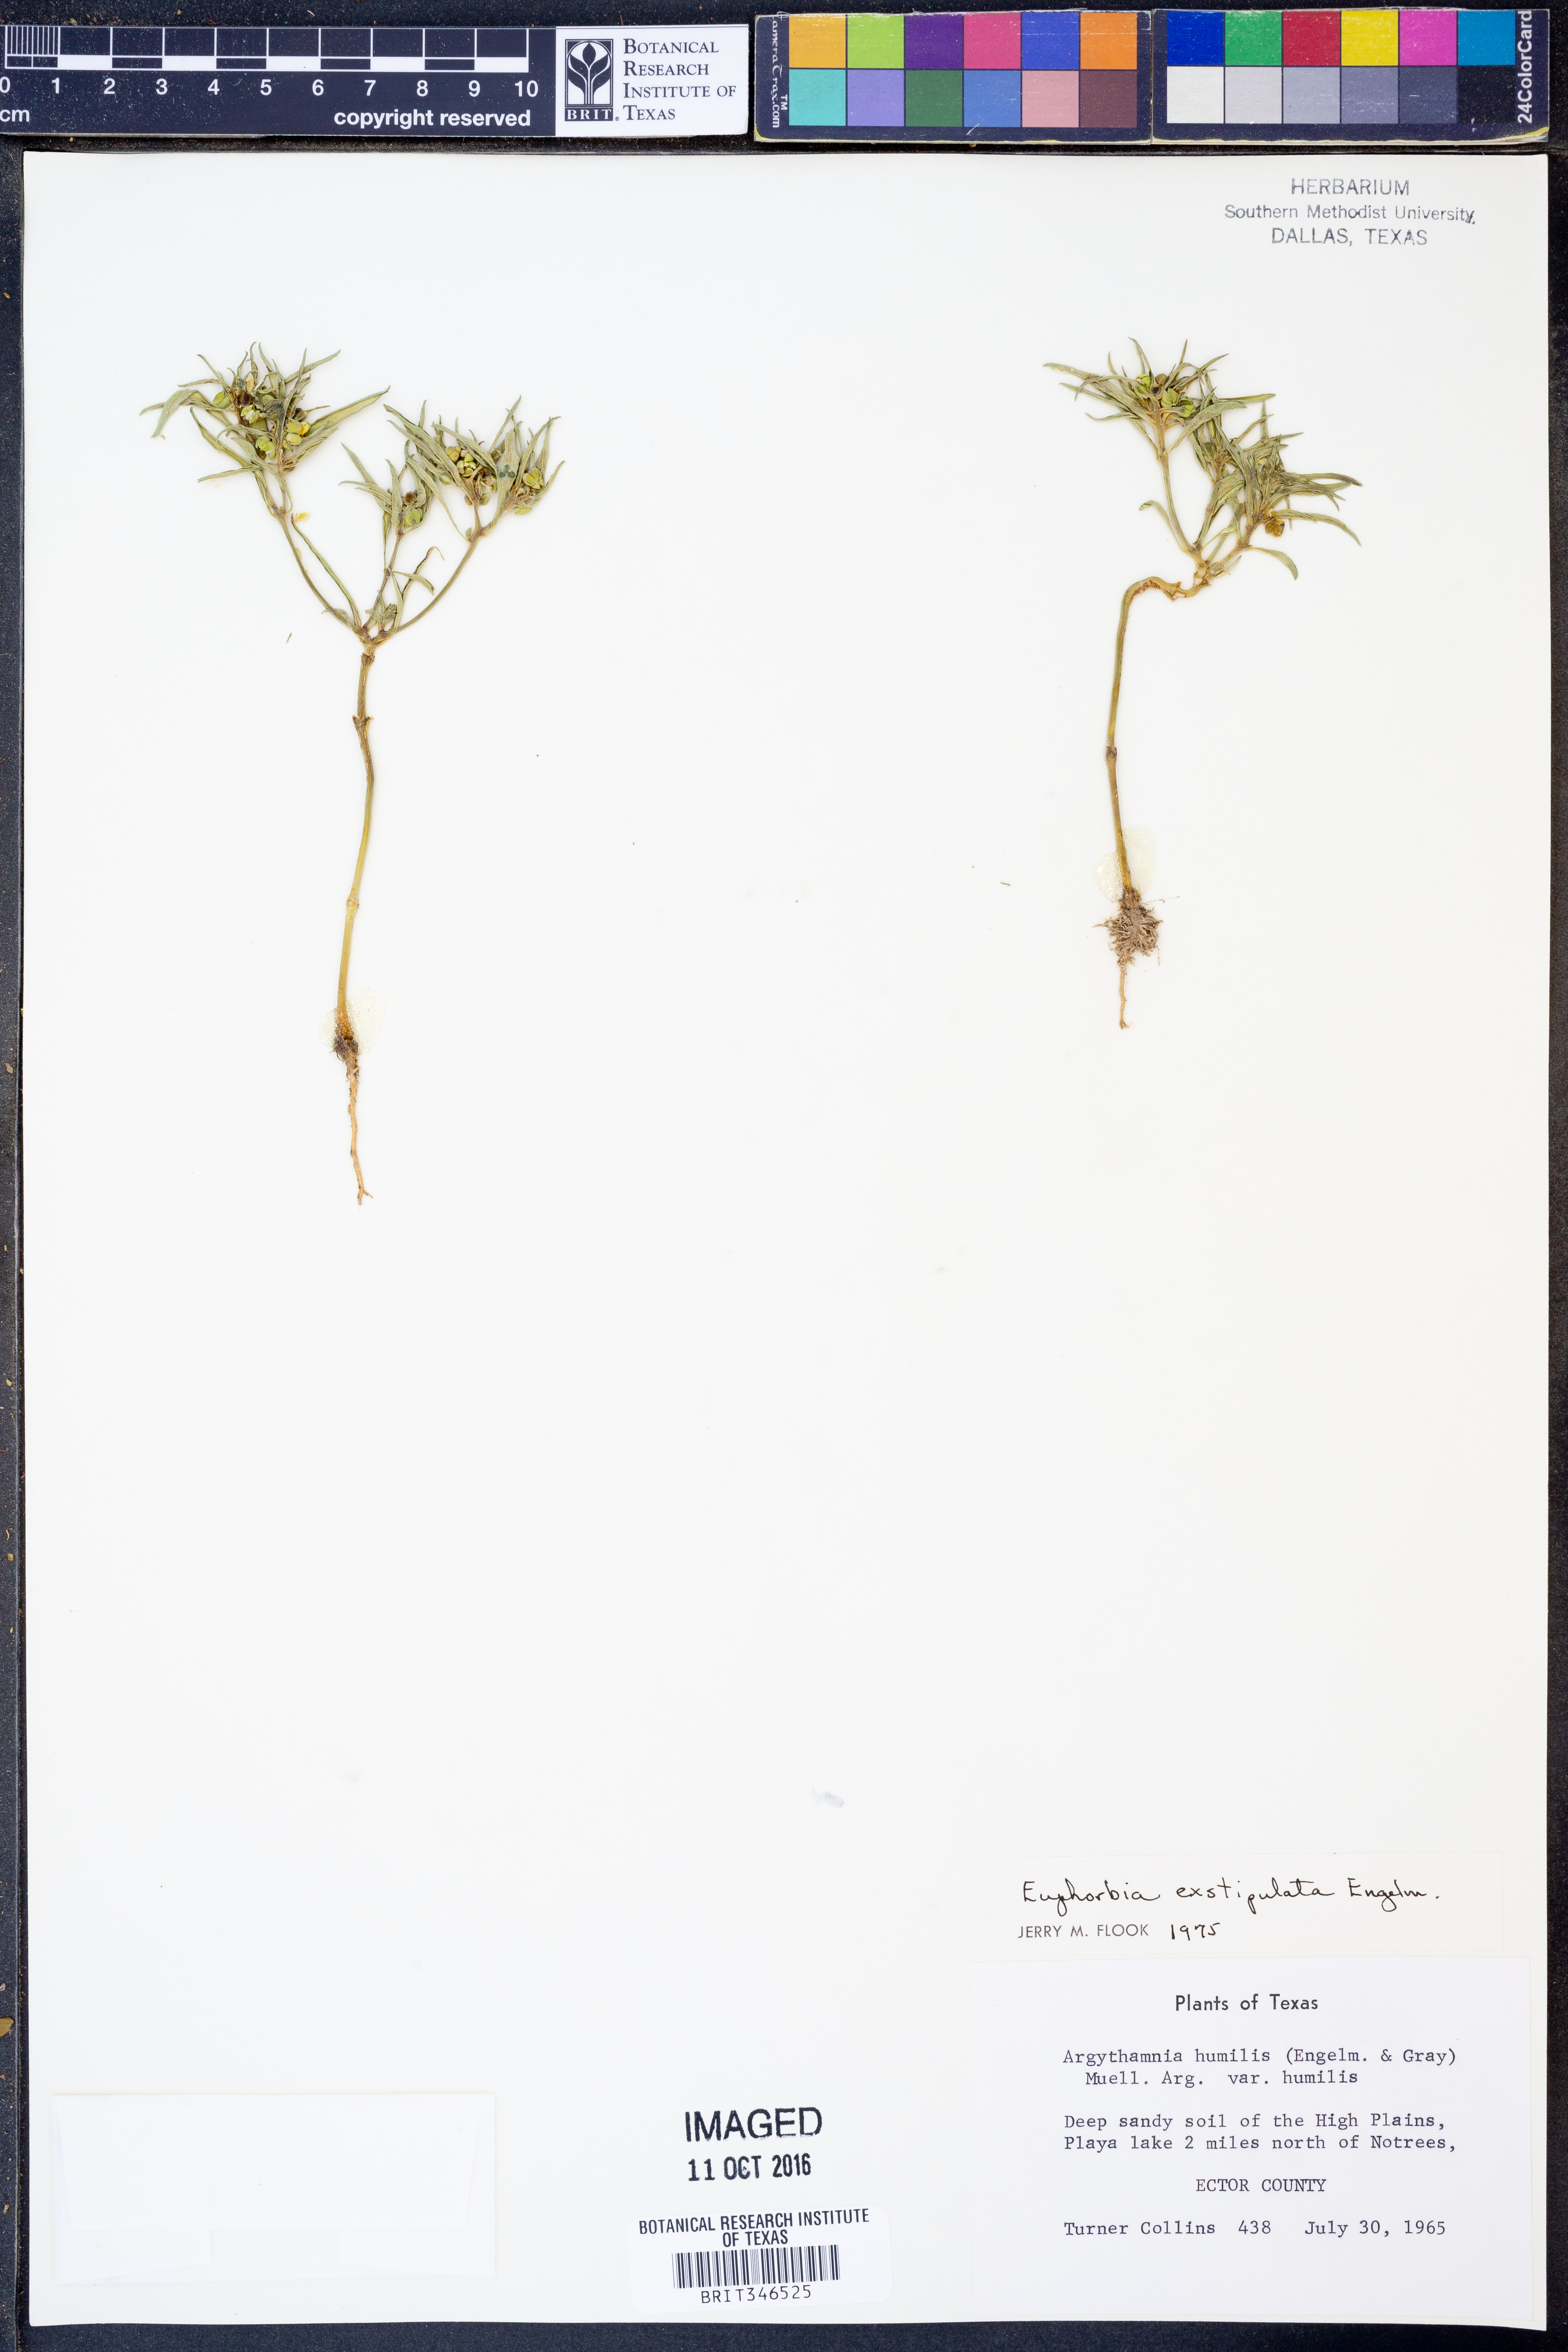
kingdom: Plantae
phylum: Tracheophyta
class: Magnoliopsida
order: Malpighiales
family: Euphorbiaceae
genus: Euphorbia
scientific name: Euphorbia exstipulata
